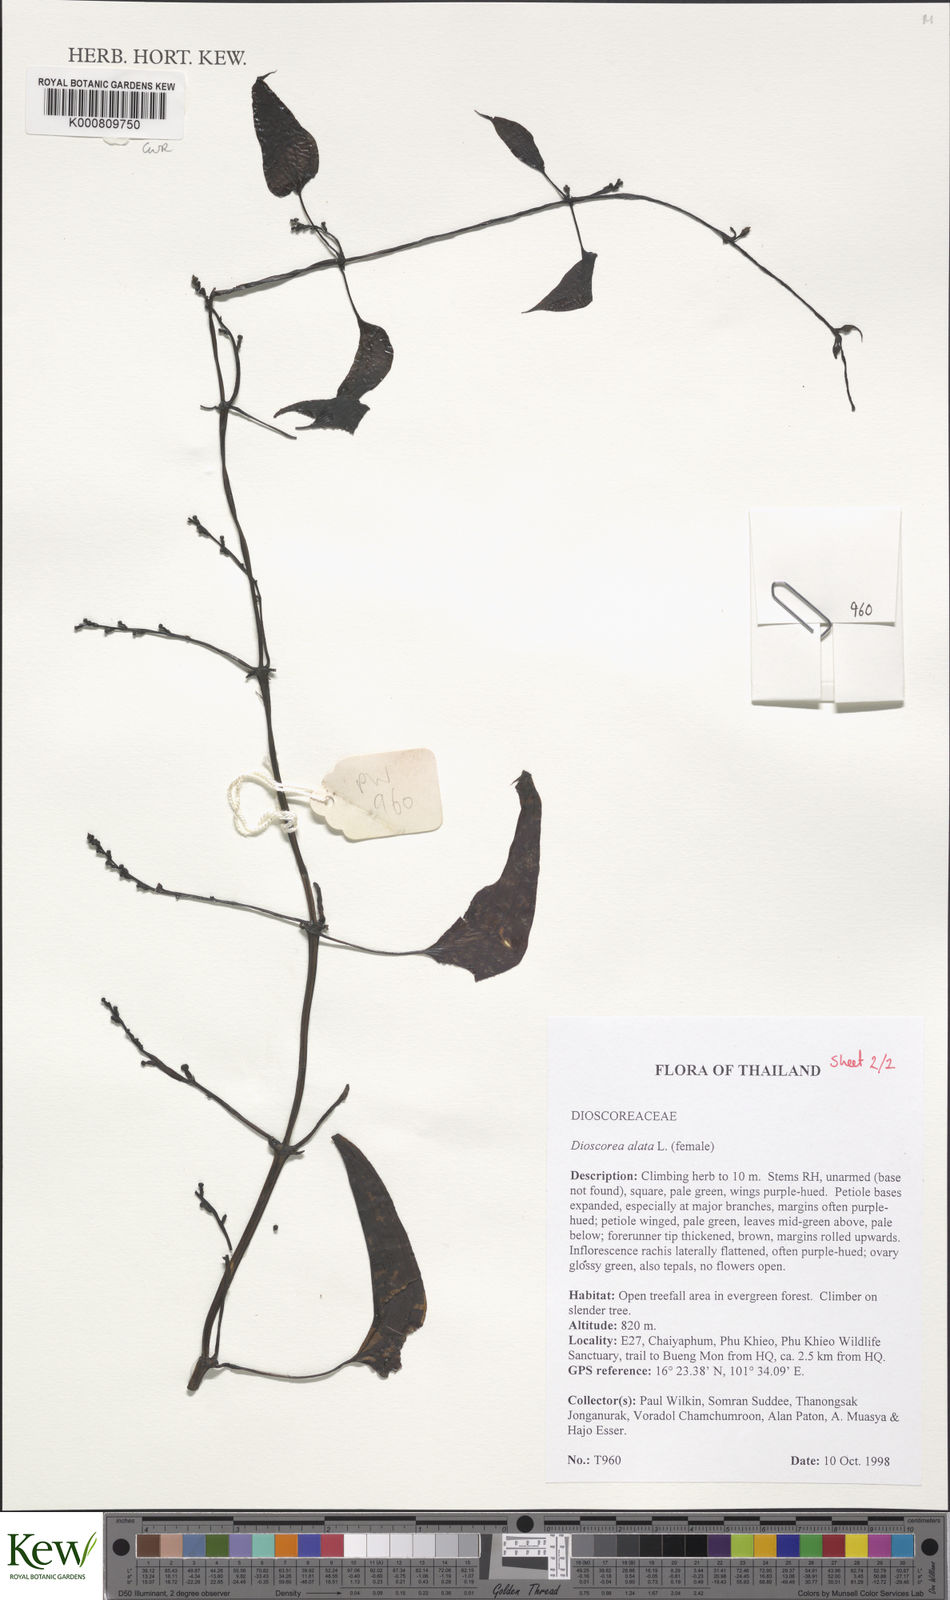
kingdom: Plantae
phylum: Tracheophyta
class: Liliopsida
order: Dioscoreales
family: Dioscoreaceae
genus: Dioscorea
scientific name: Dioscorea alata
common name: Water yam
